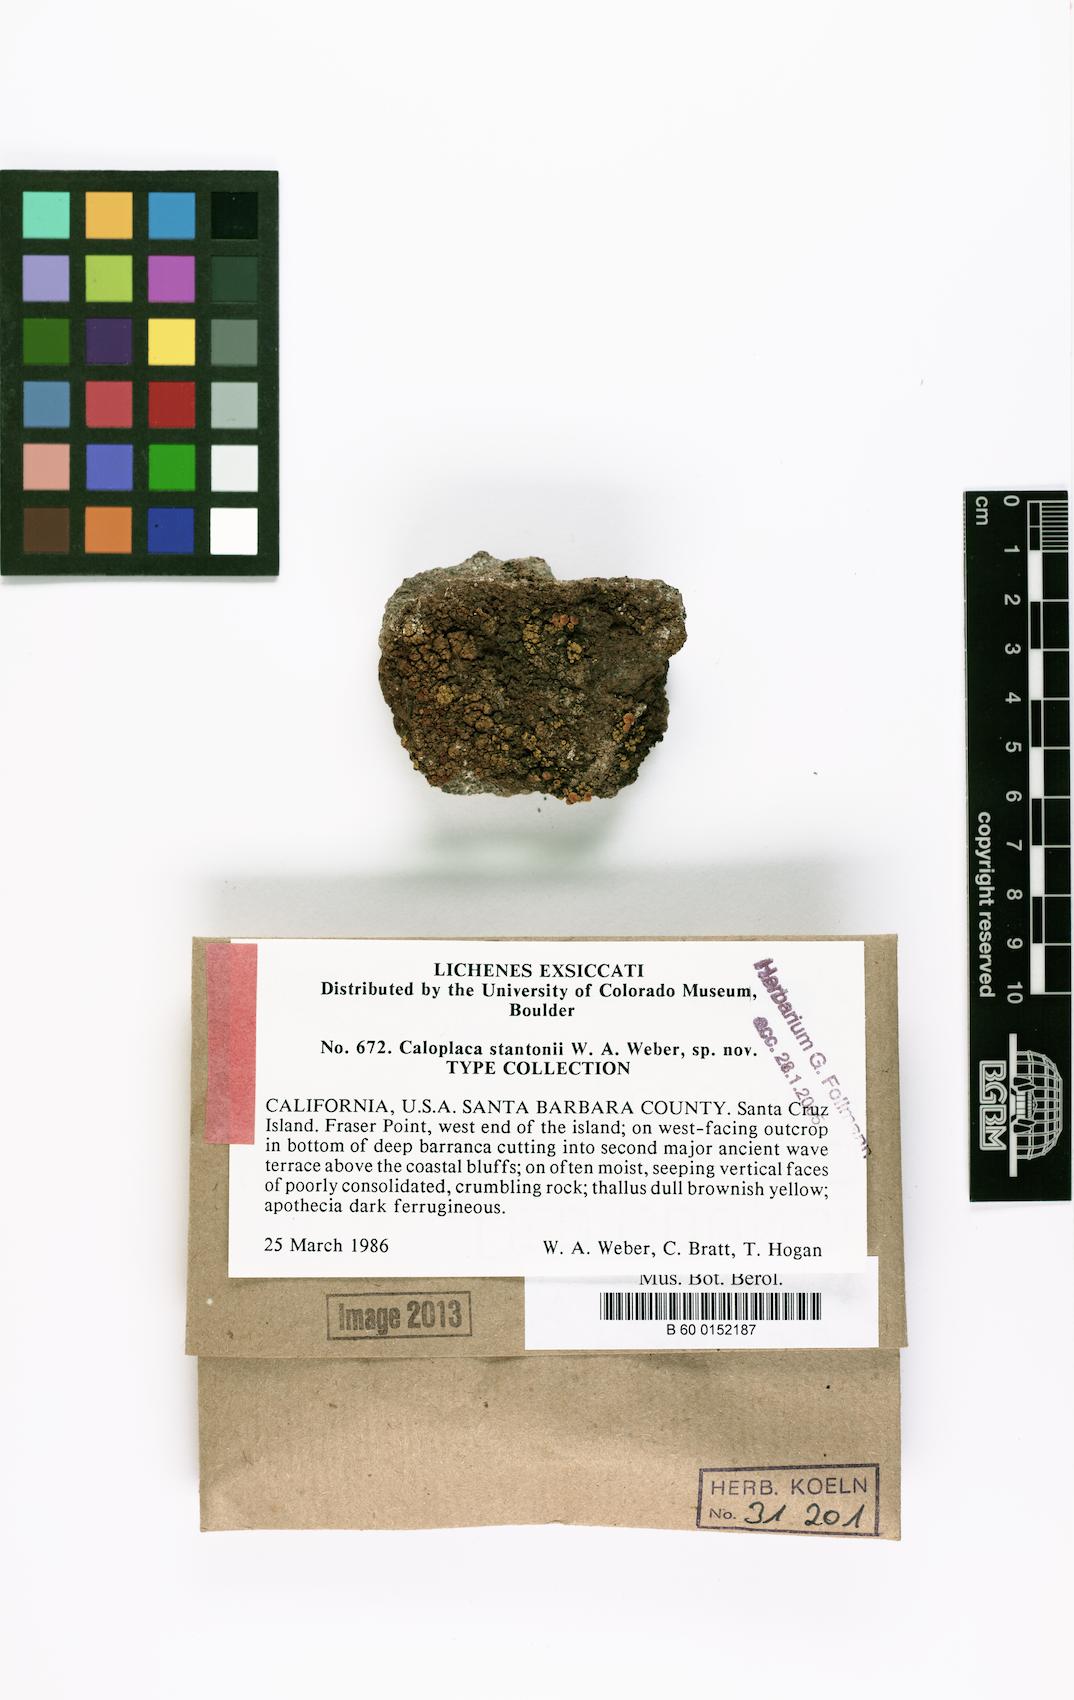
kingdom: Fungi
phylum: Ascomycota
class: Lecanoromycetes
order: Teloschistales
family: Teloschistaceae
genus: Gyalolechia
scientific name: Gyalolechia stantonii
